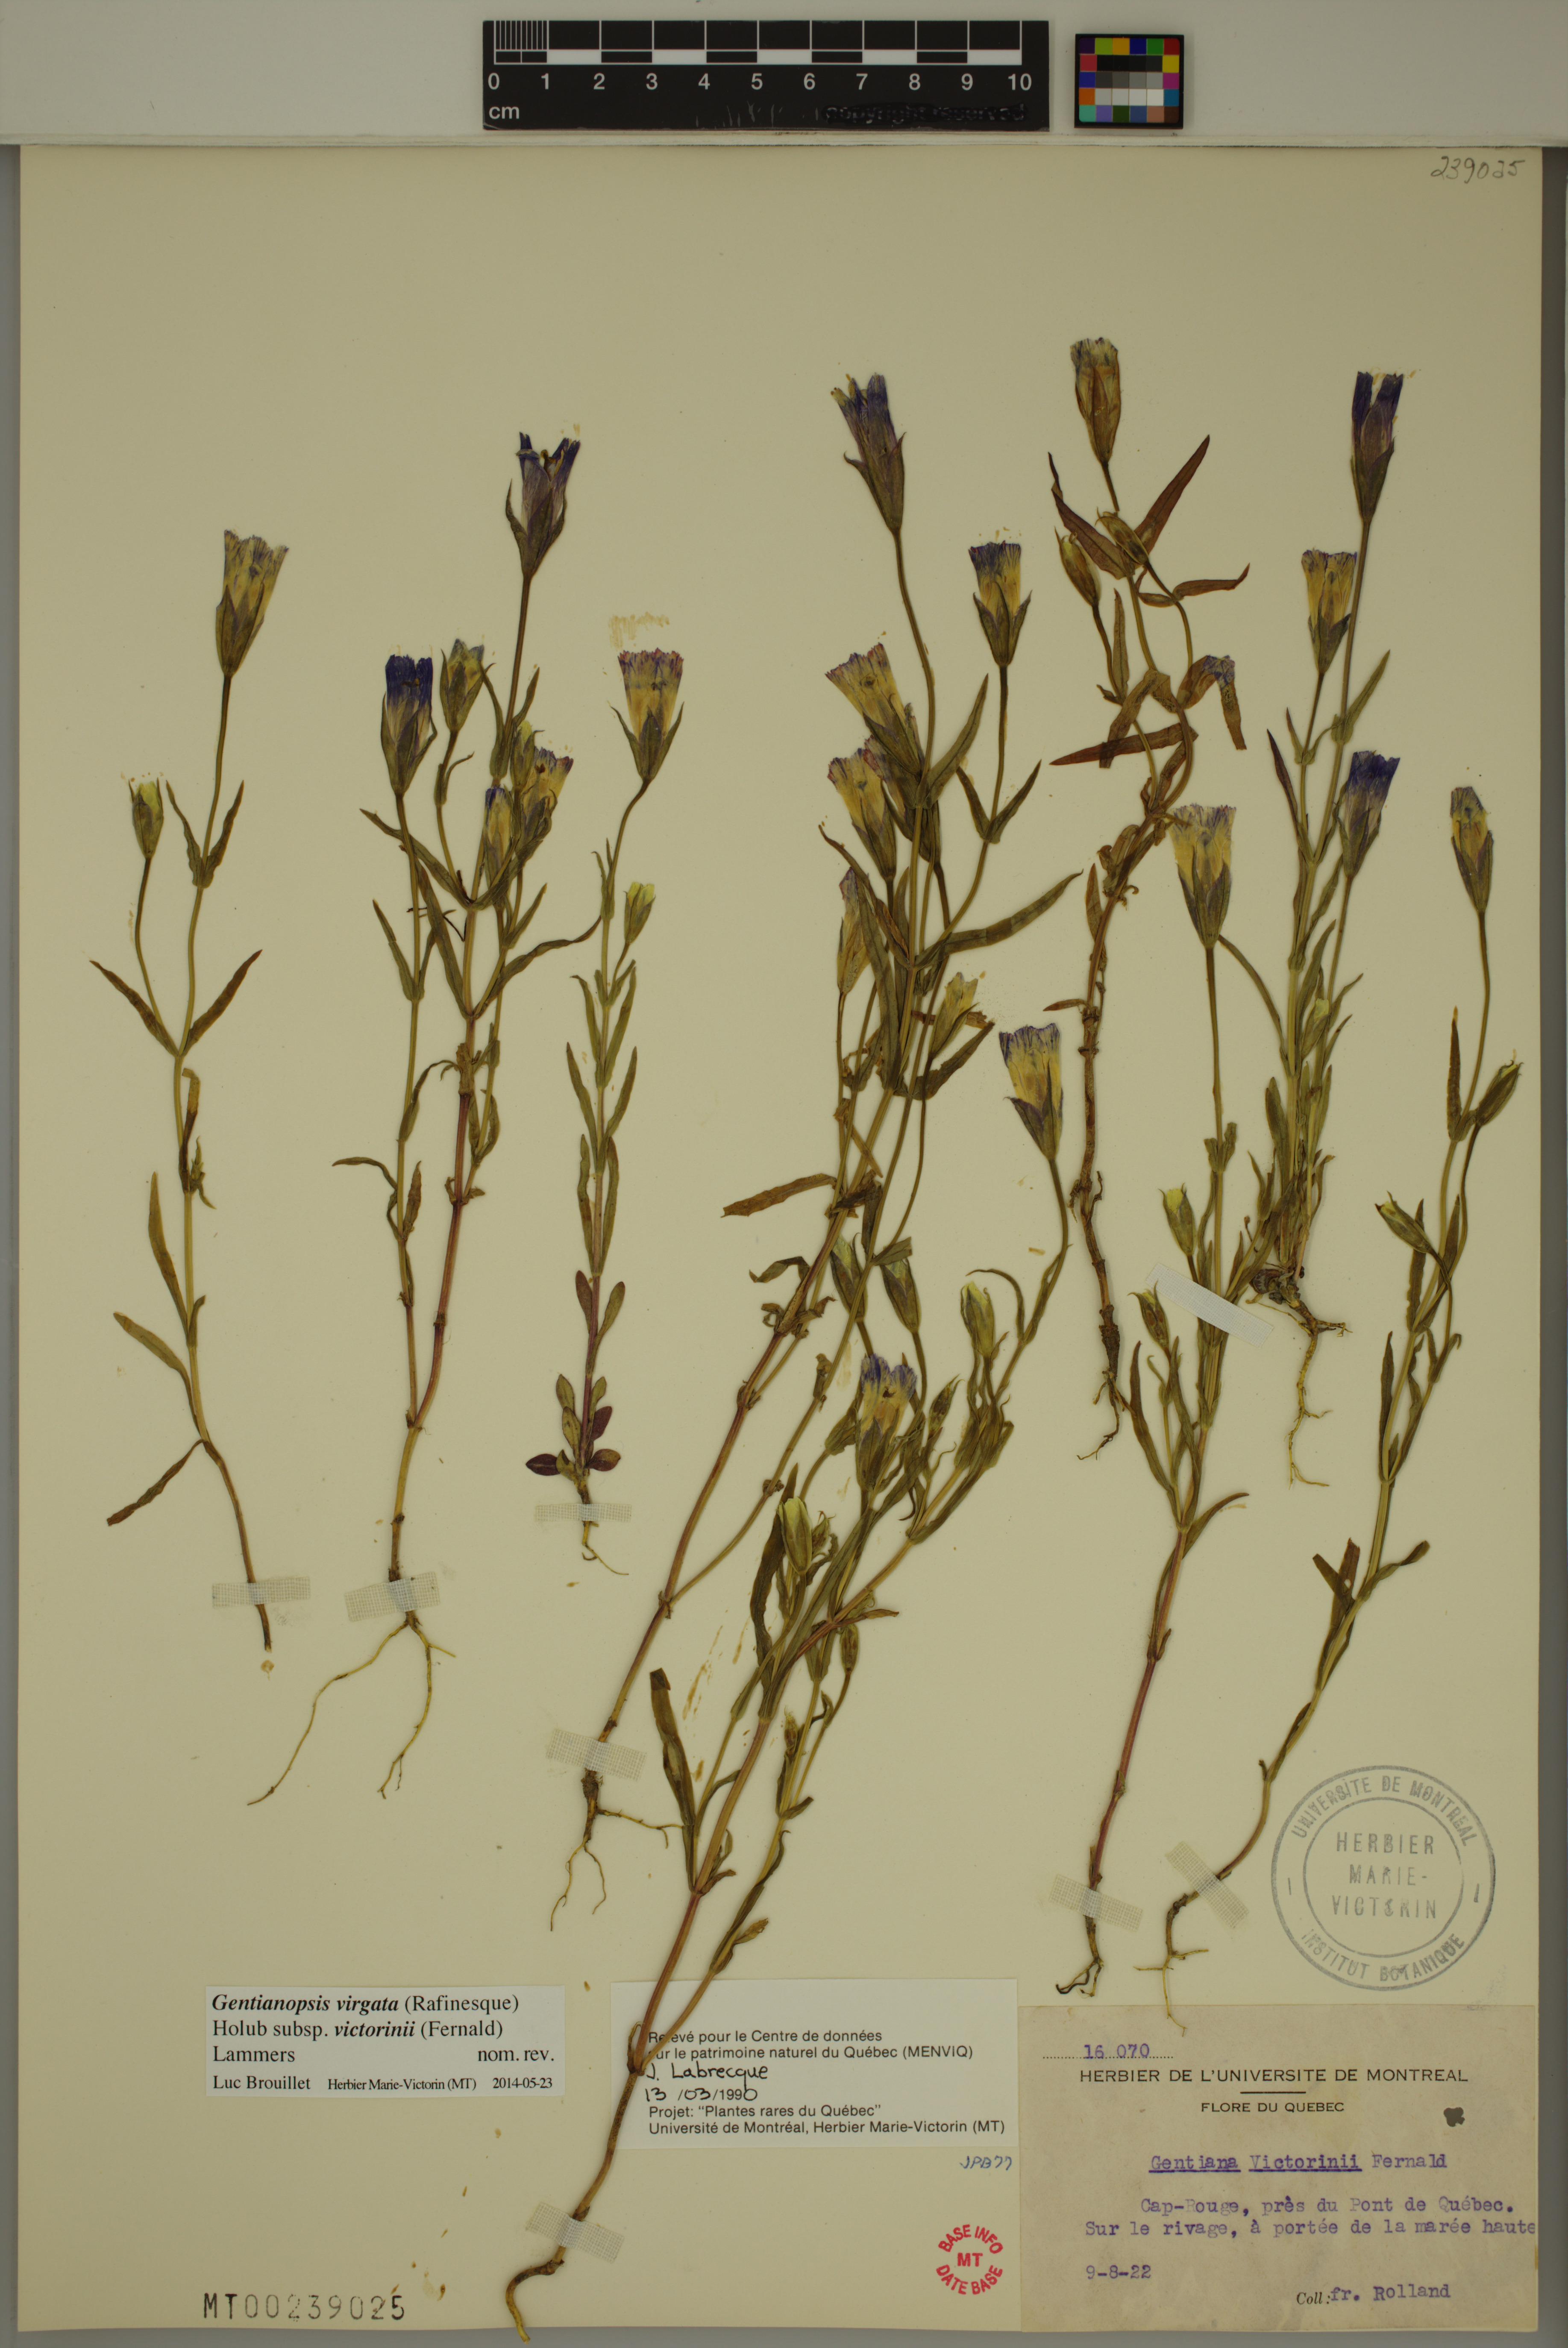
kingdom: Plantae
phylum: Tracheophyta
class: Magnoliopsida
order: Gentianales
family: Gentianaceae
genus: Gentianopsis
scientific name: Gentianopsis victorinii
